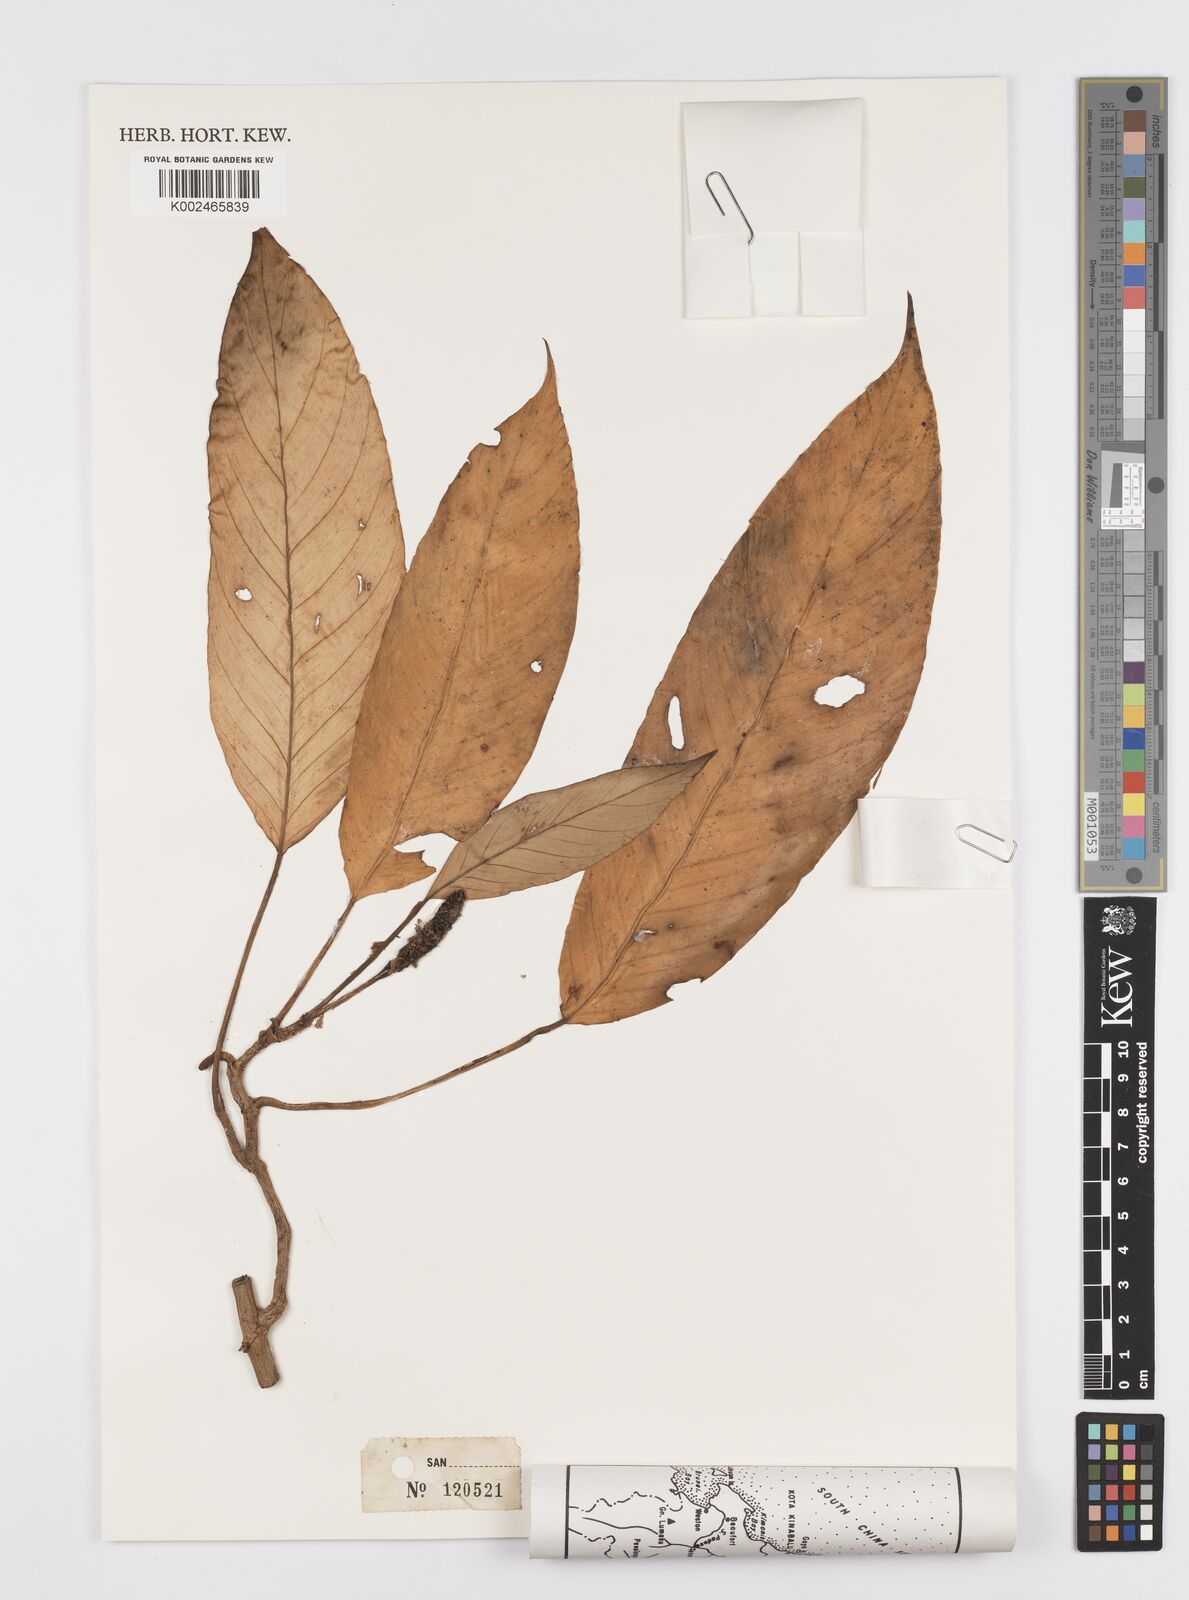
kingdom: Plantae
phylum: Tracheophyta
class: Liliopsida
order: Alismatales
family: Araceae
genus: Rhaphidophora
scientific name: Rhaphidophora lobbii
